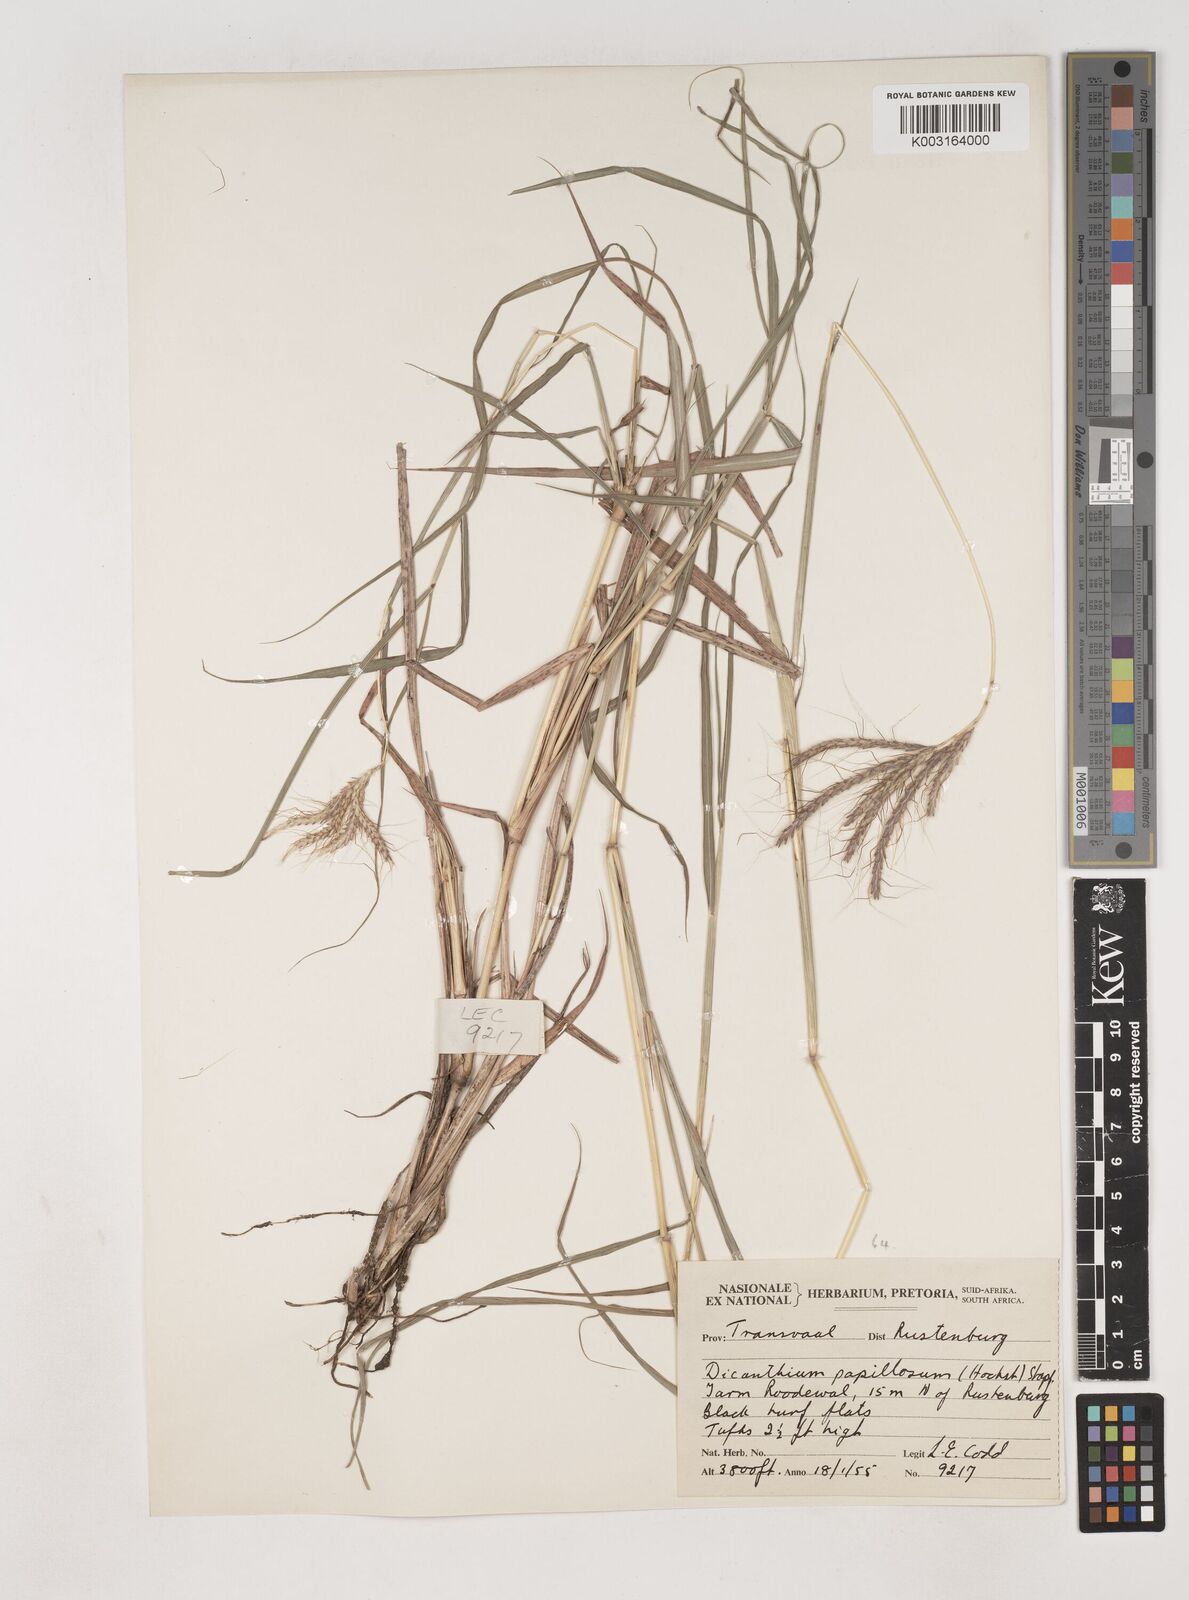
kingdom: Plantae
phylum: Tracheophyta
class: Liliopsida
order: Poales
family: Poaceae
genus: Dichanthium
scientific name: Dichanthium annulatum
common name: Kleberg's bluestem
